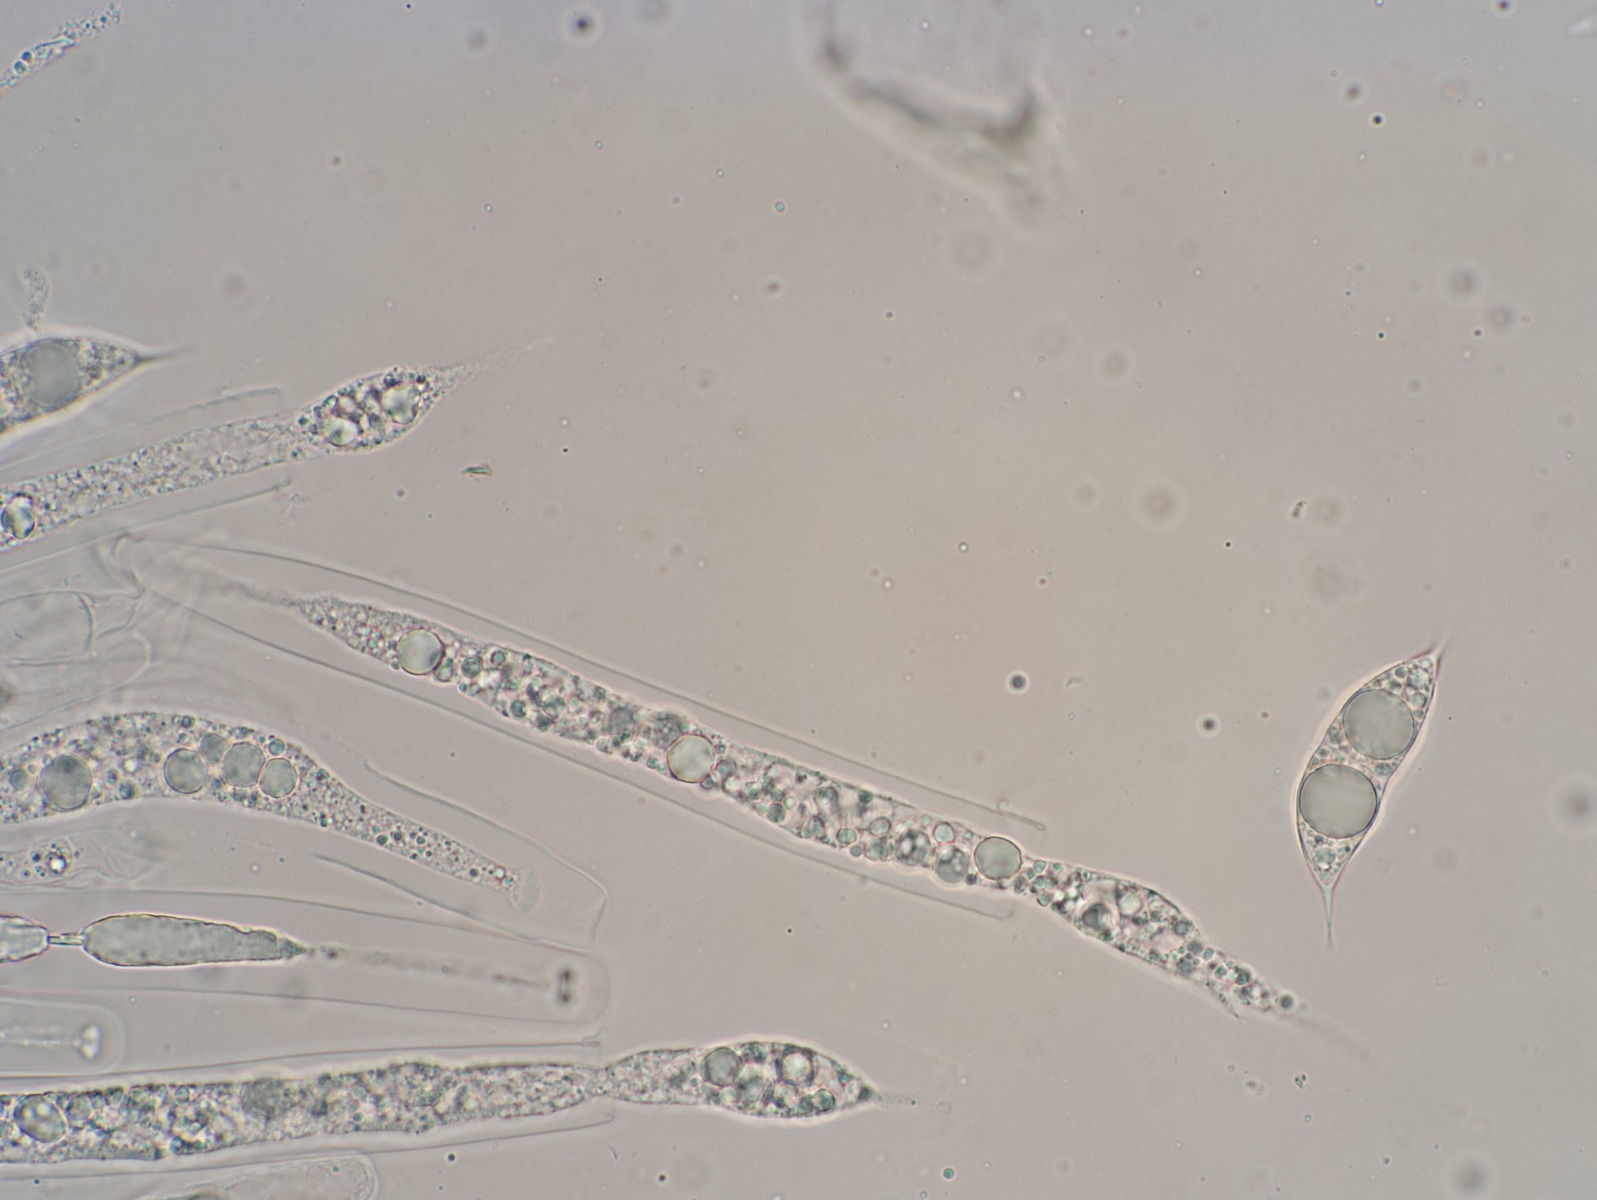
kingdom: Fungi
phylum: Ascomycota
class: Sordariomycetes
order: Amphisphaeriales
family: Amphisphaeriaceae
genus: Ceriospora
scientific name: Ceriospora ribis
